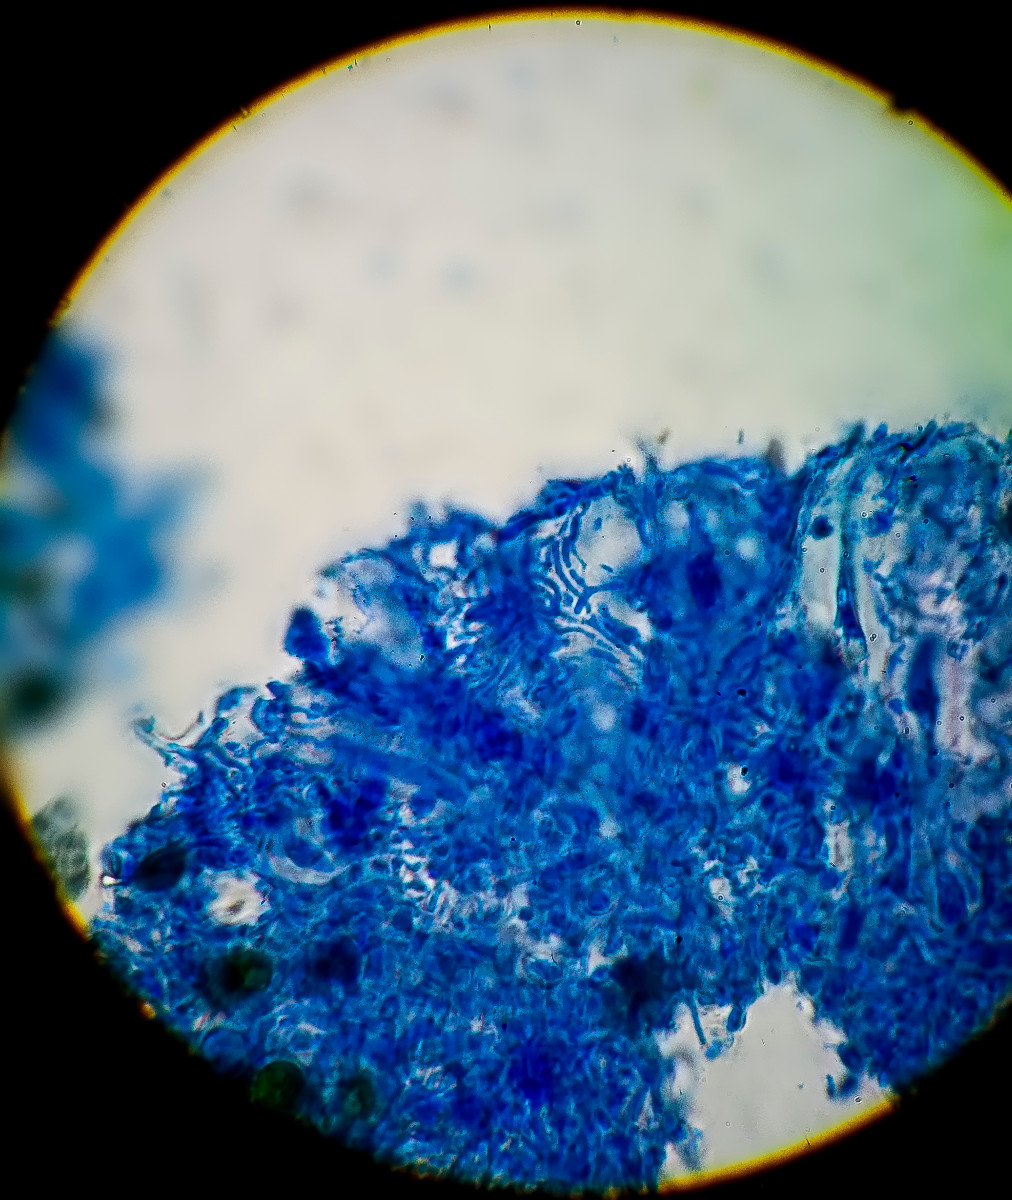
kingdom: Fungi
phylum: Ascomycota
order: Vezdaeales
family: Vezdaeaceae
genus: Vezdaea
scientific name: Vezdaea aestivalis
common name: høst-flygtiglav
